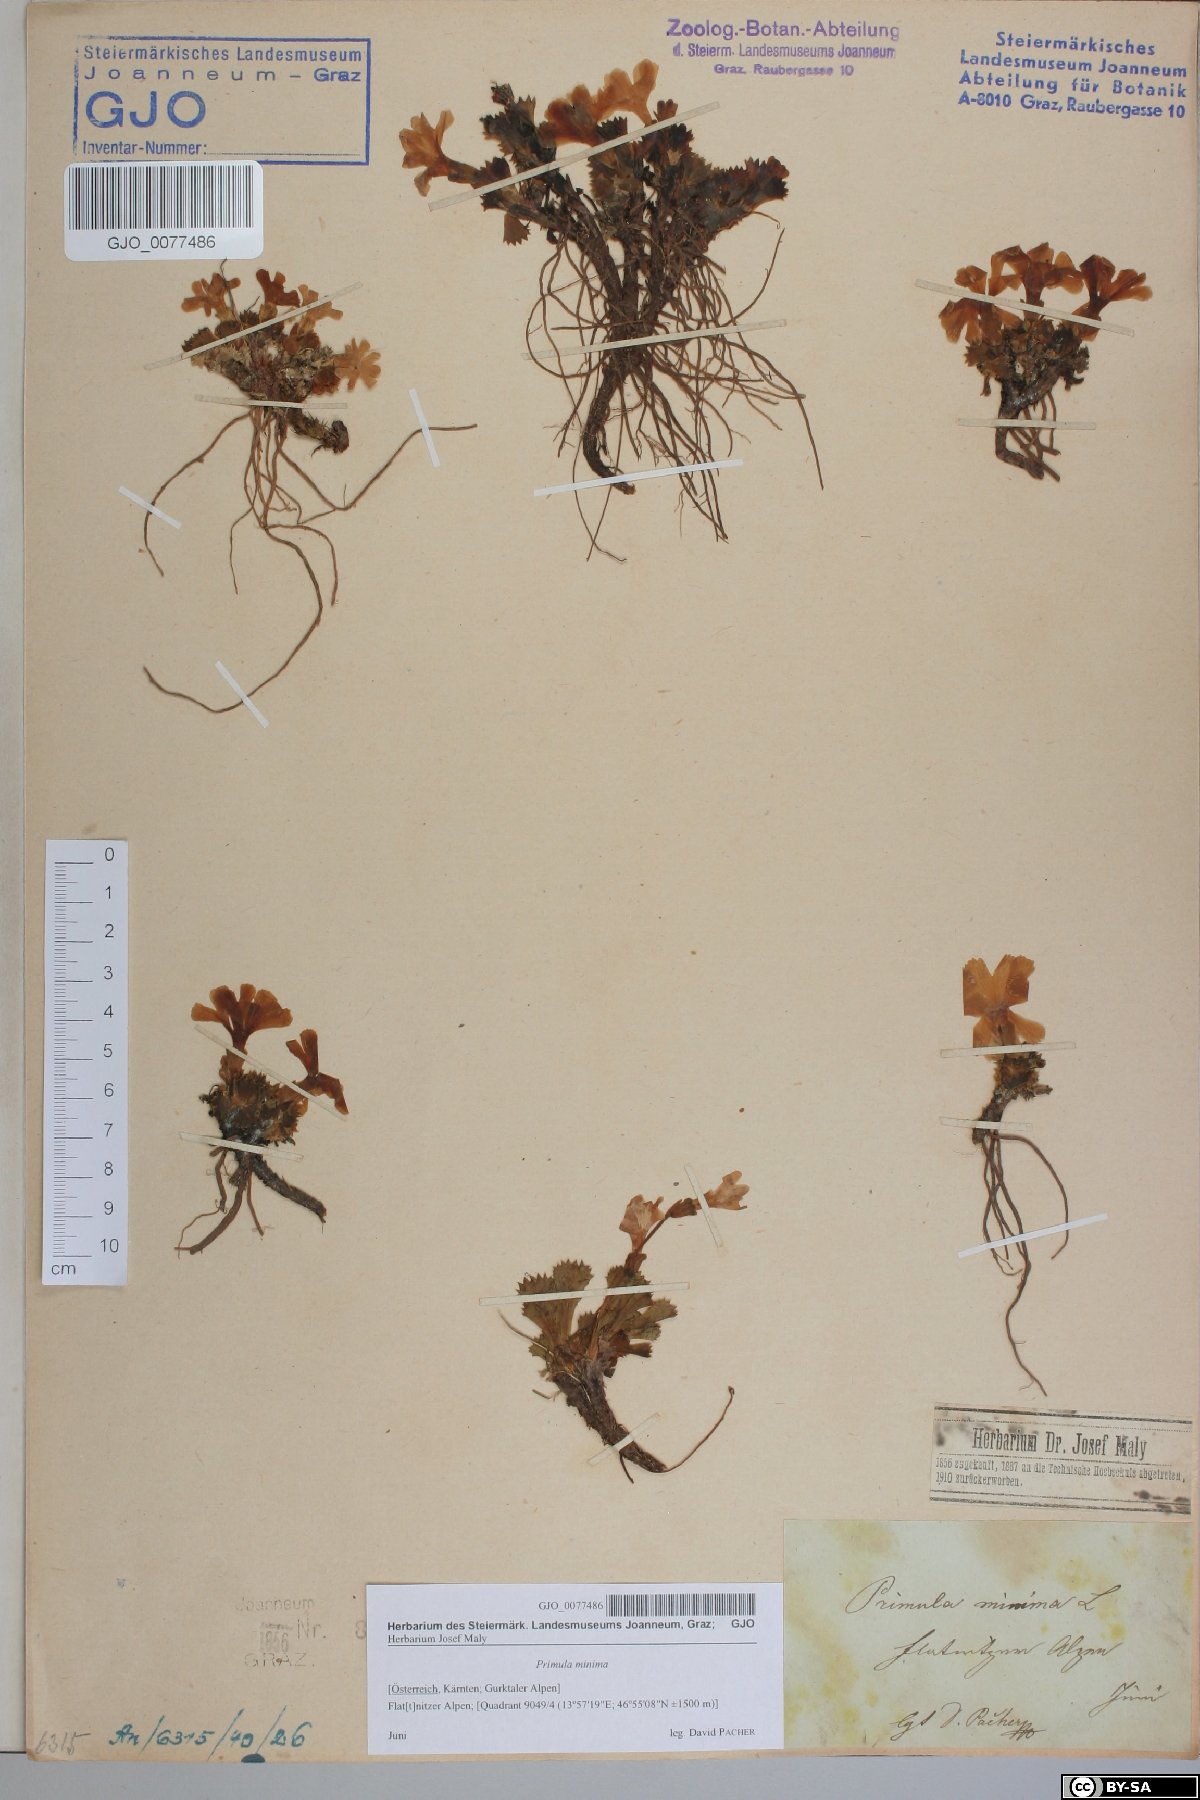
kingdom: Plantae
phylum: Tracheophyta
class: Magnoliopsida
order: Ericales
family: Primulaceae
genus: Primula
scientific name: Primula minima
